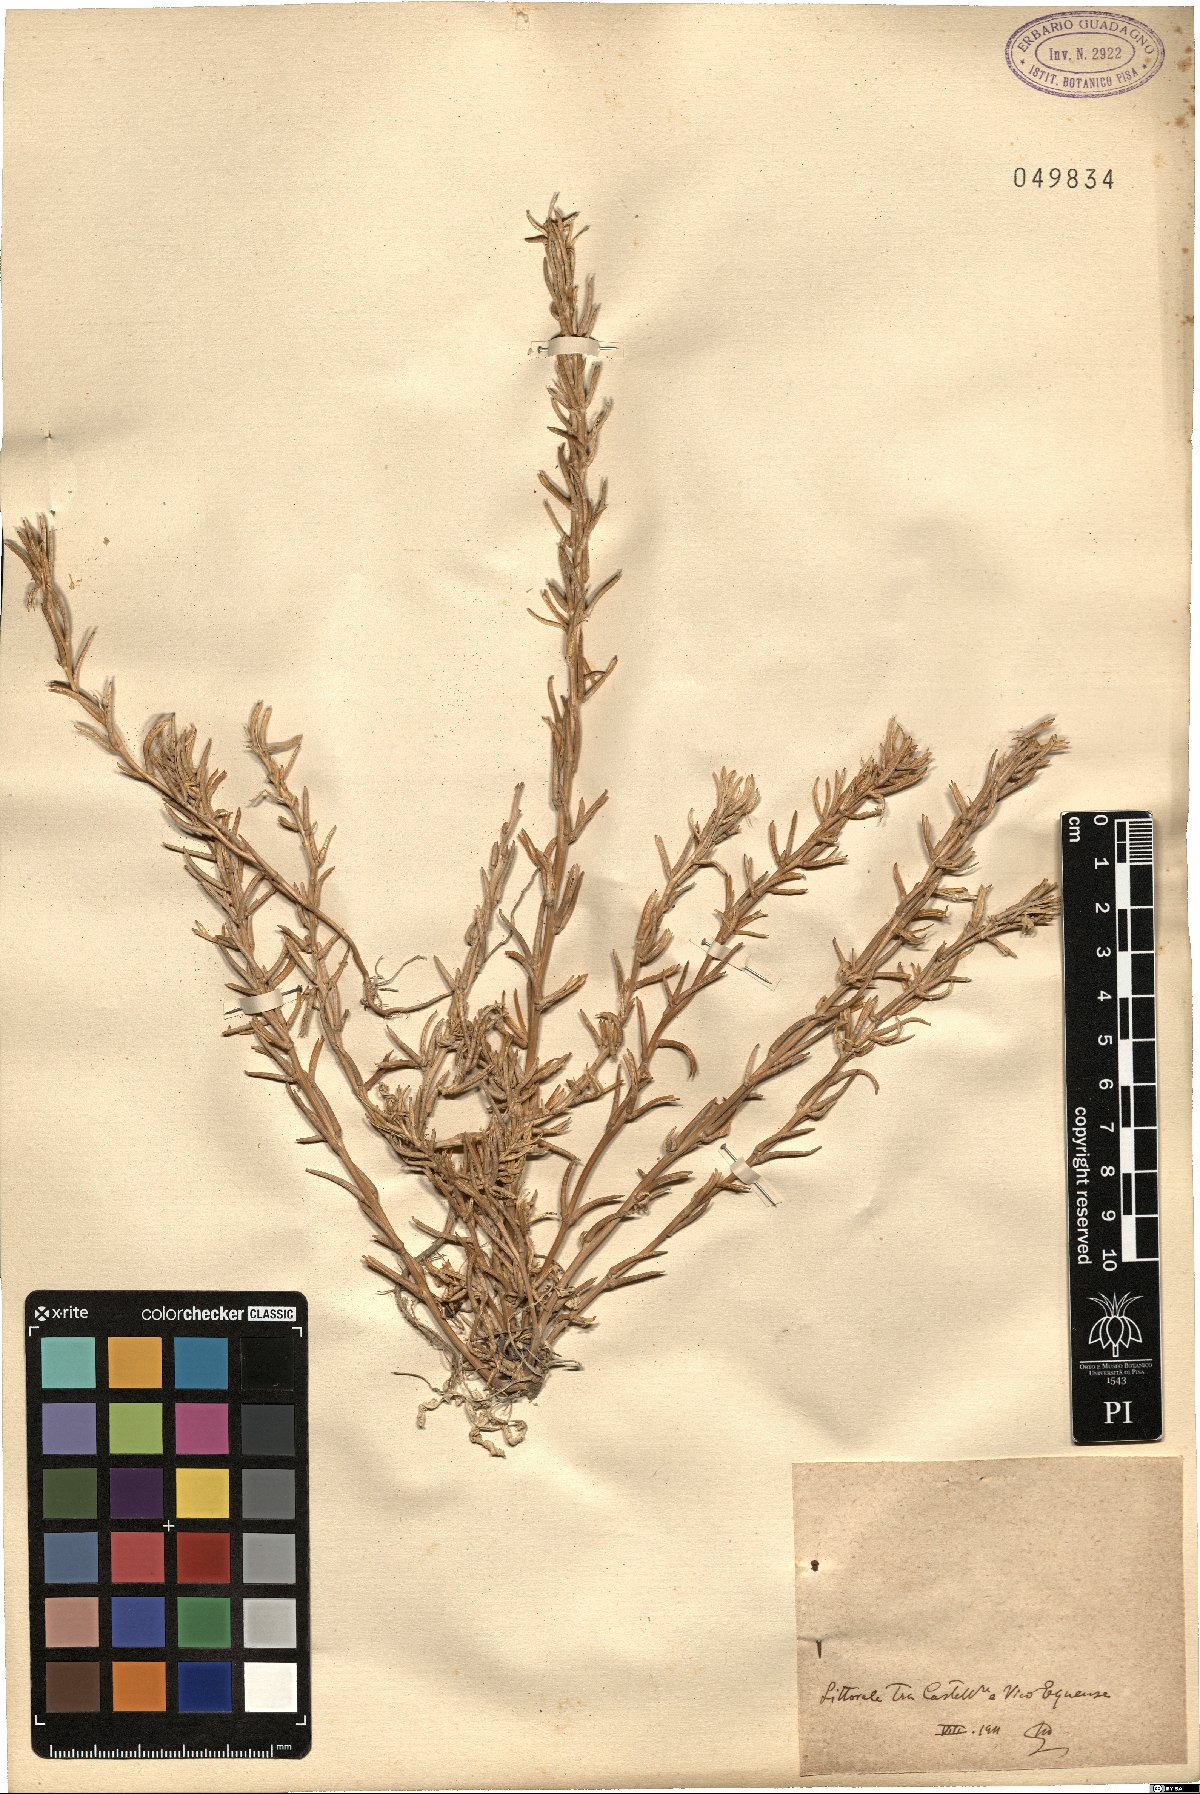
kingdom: Plantae
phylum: Tracheophyta
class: Magnoliopsida
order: Brassicales
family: Brassicaceae
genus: Sisymbrium
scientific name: Sisymbrium
